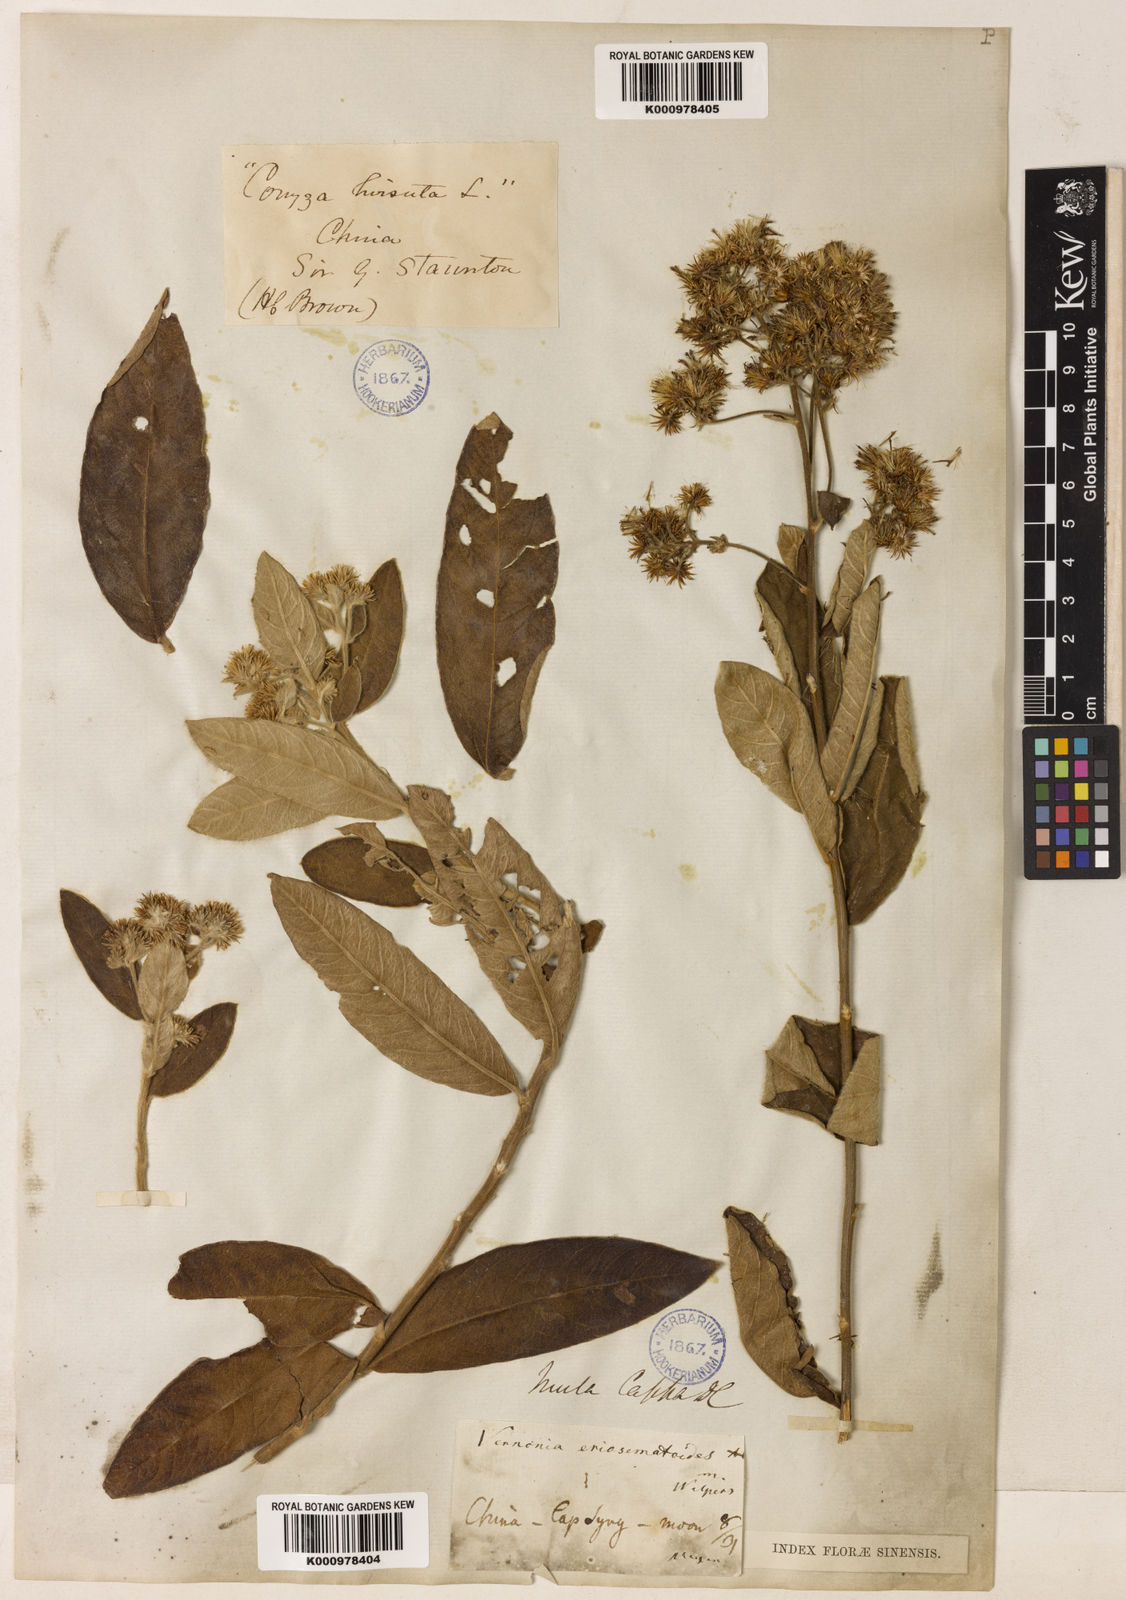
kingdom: Plantae
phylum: Tracheophyta
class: Magnoliopsida
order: Asterales
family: Asteraceae
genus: Duhaldea
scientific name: Duhaldea cappa
